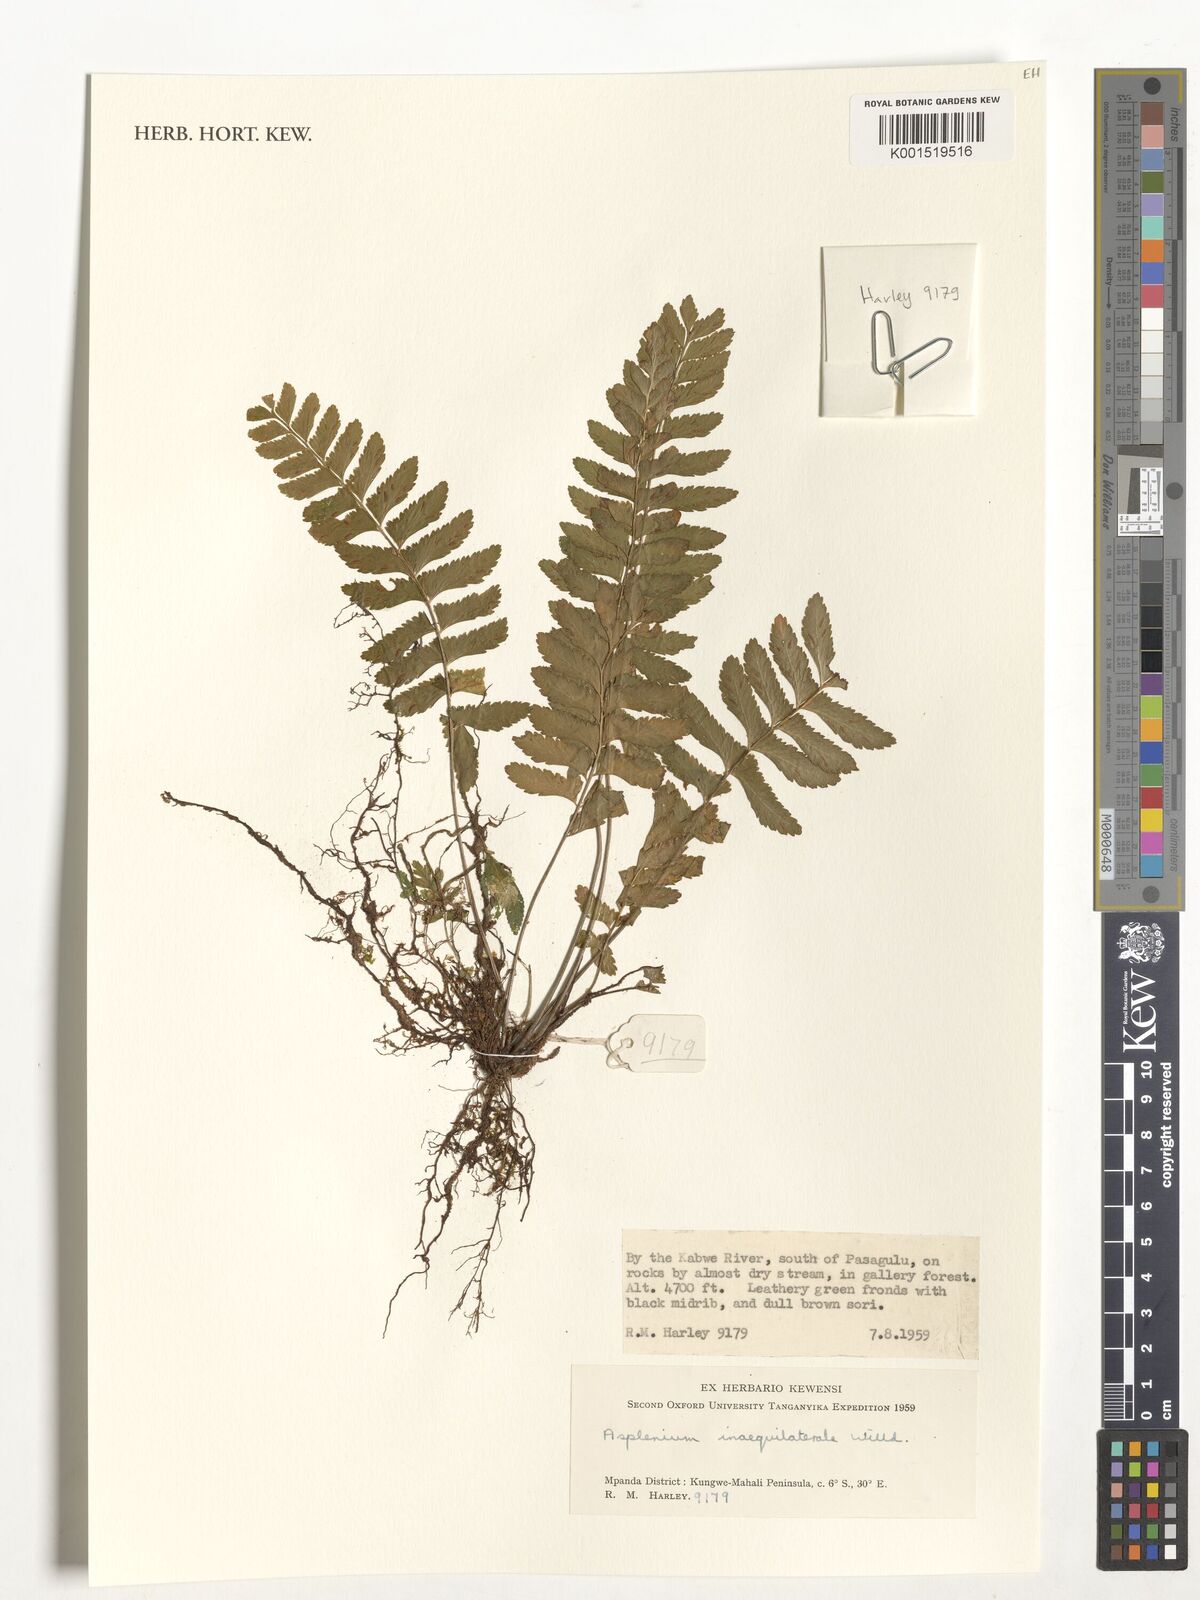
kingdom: Plantae
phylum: Tracheophyta
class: Polypodiopsida
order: Polypodiales
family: Aspleniaceae
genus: Asplenium
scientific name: Asplenium inaequilaterale
